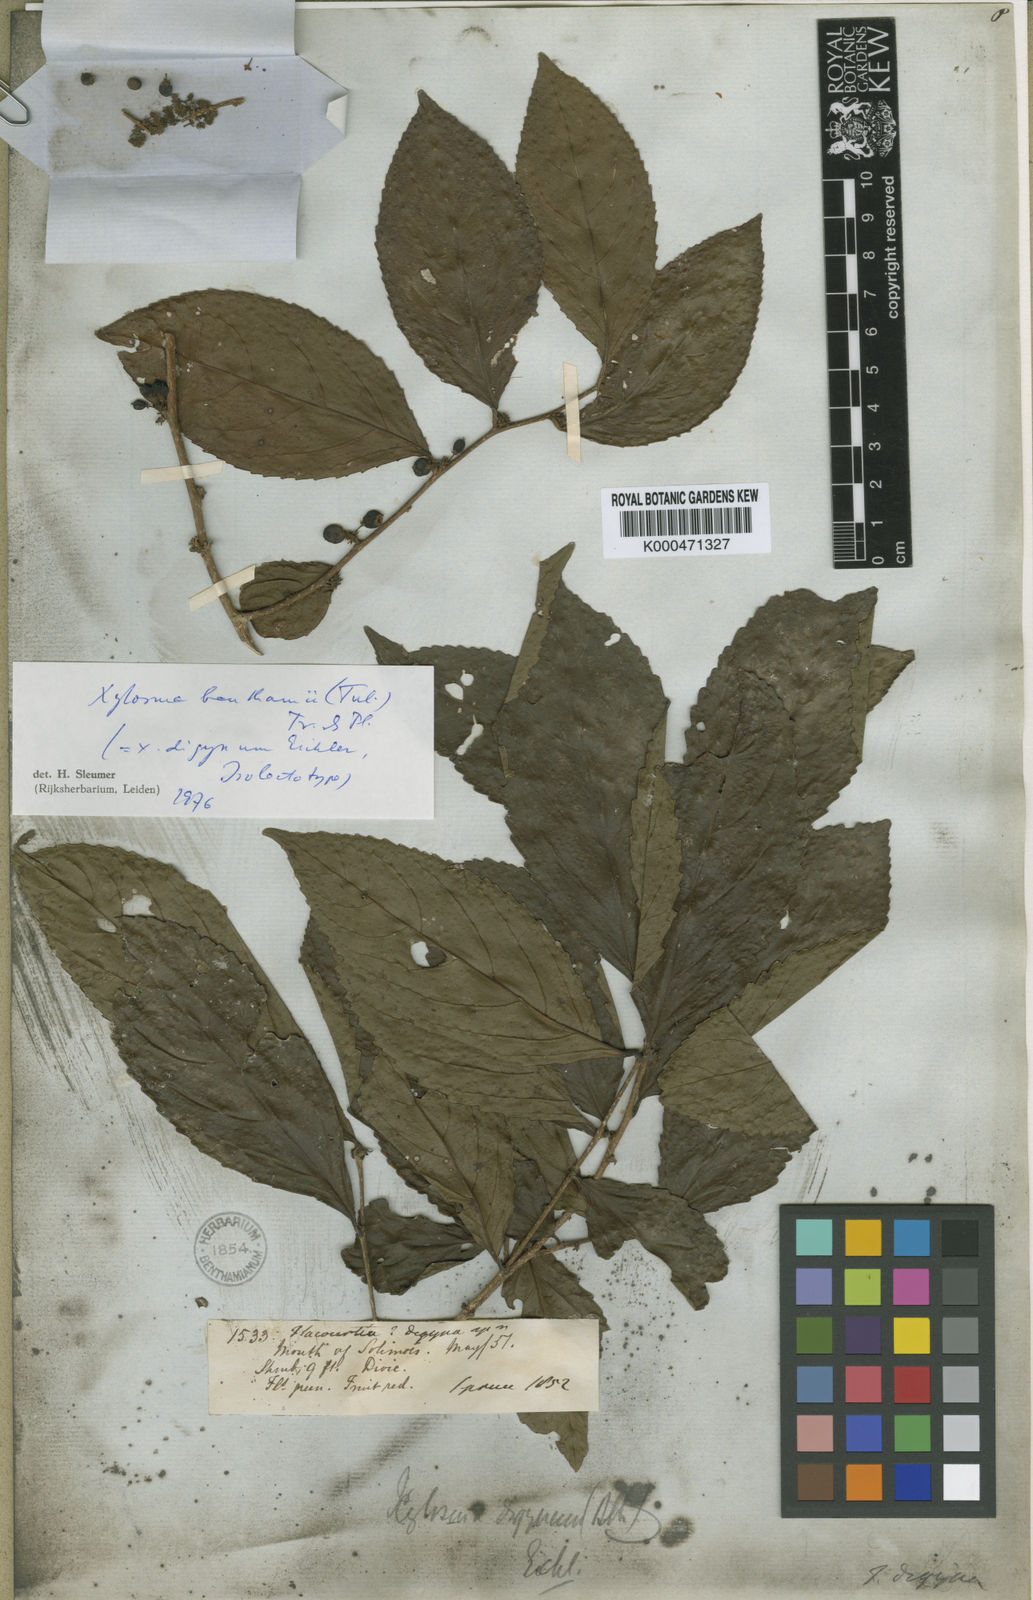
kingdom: Plantae
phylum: Tracheophyta
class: Magnoliopsida
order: Malpighiales
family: Salicaceae
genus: Xylosma
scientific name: Xylosma benthamii
